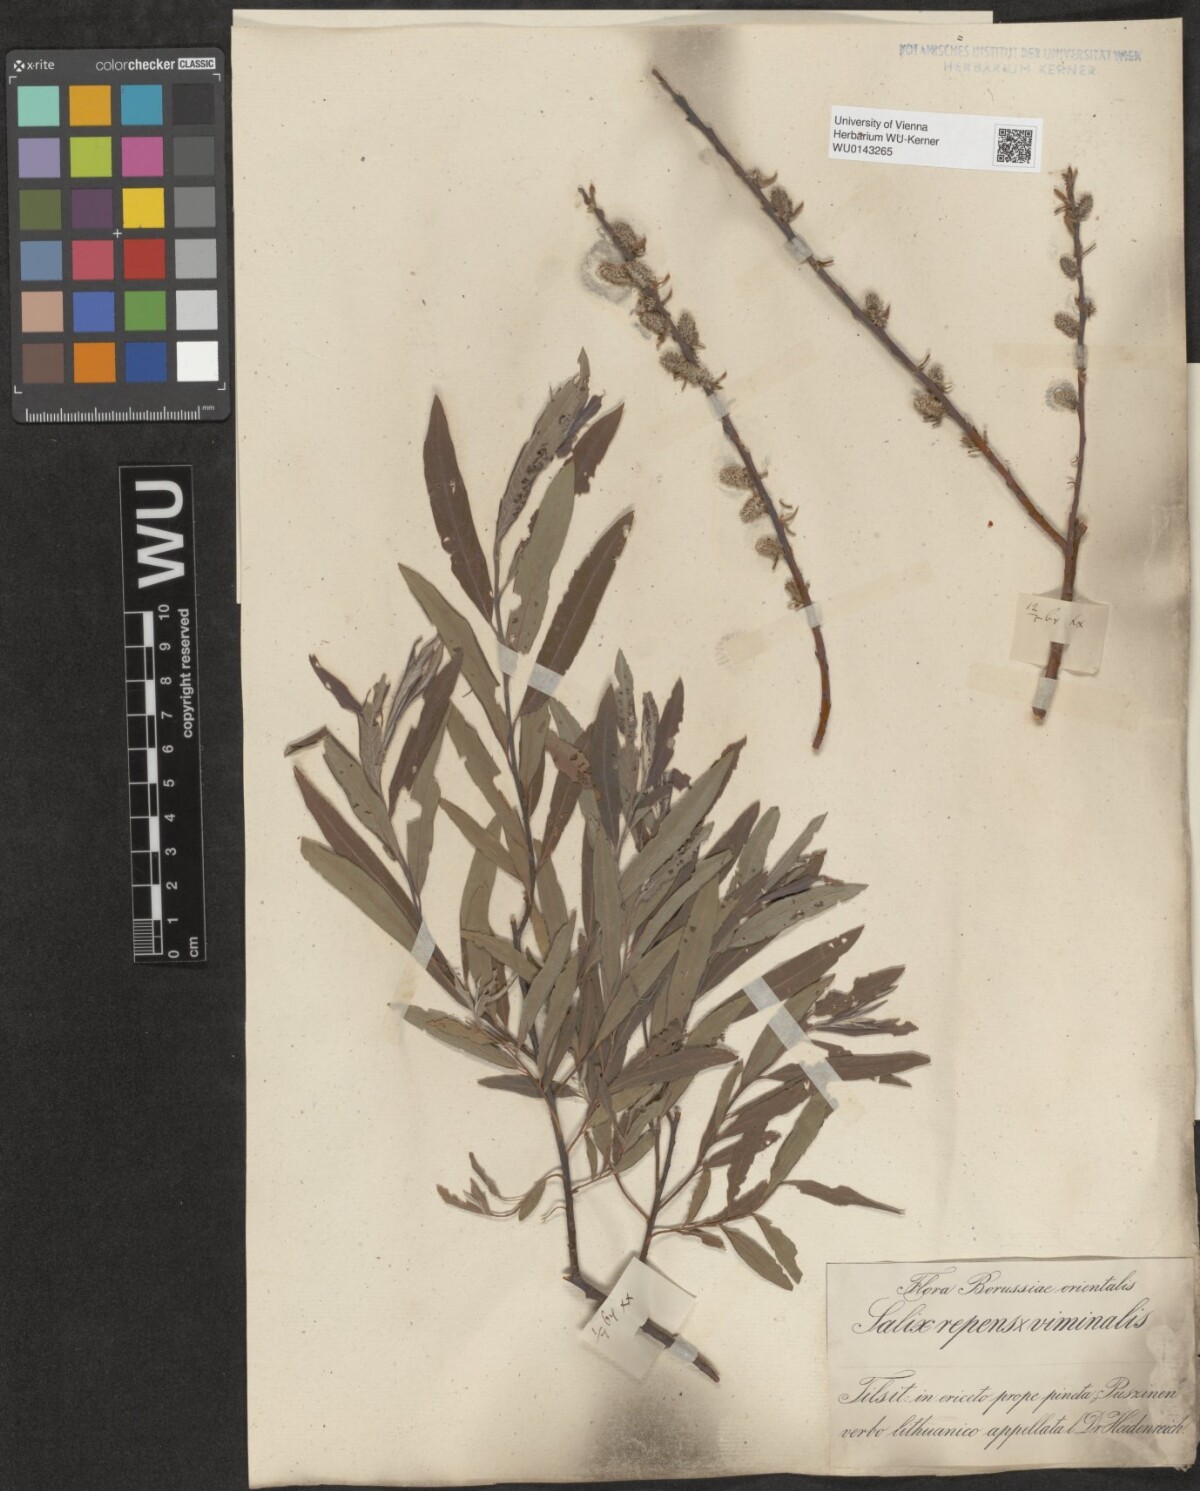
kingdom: Plantae
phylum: Tracheophyta
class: Magnoliopsida
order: Malpighiales
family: Salicaceae
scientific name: Salicaceae
